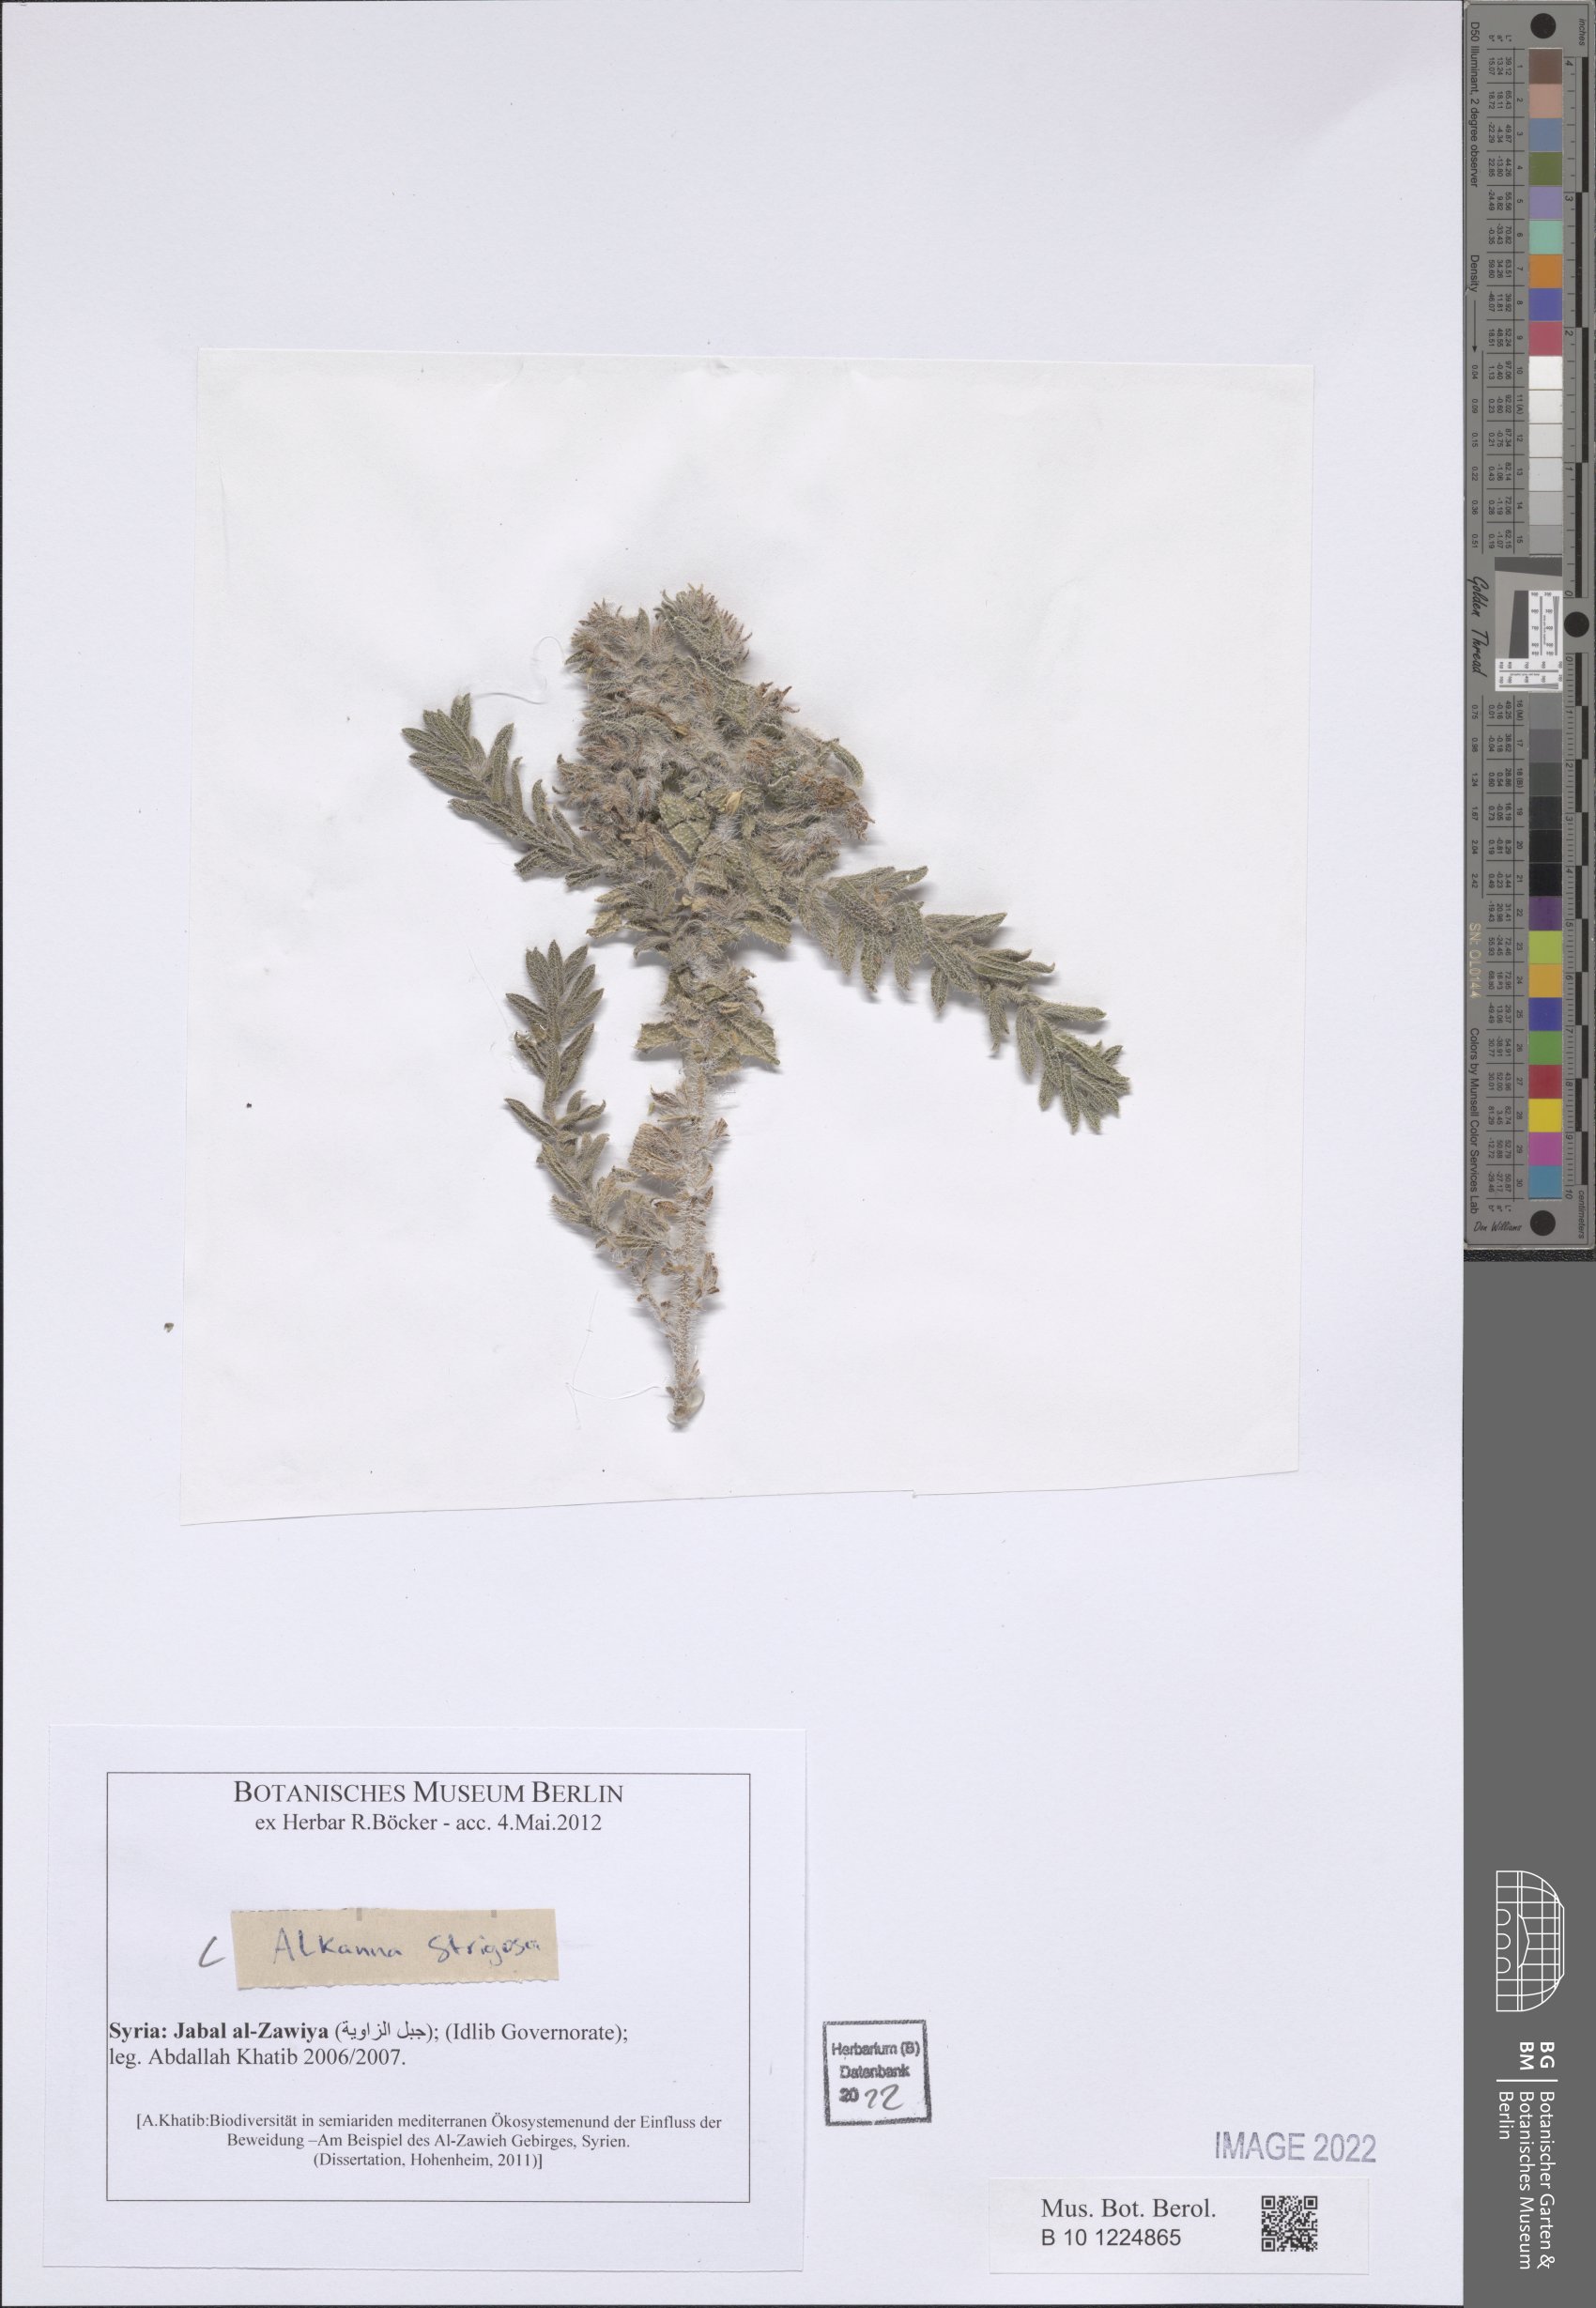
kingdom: Plantae
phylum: Tracheophyta
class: Magnoliopsida
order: Boraginales
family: Boraginaceae
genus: Alkanna
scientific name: Alkanna strigosa
